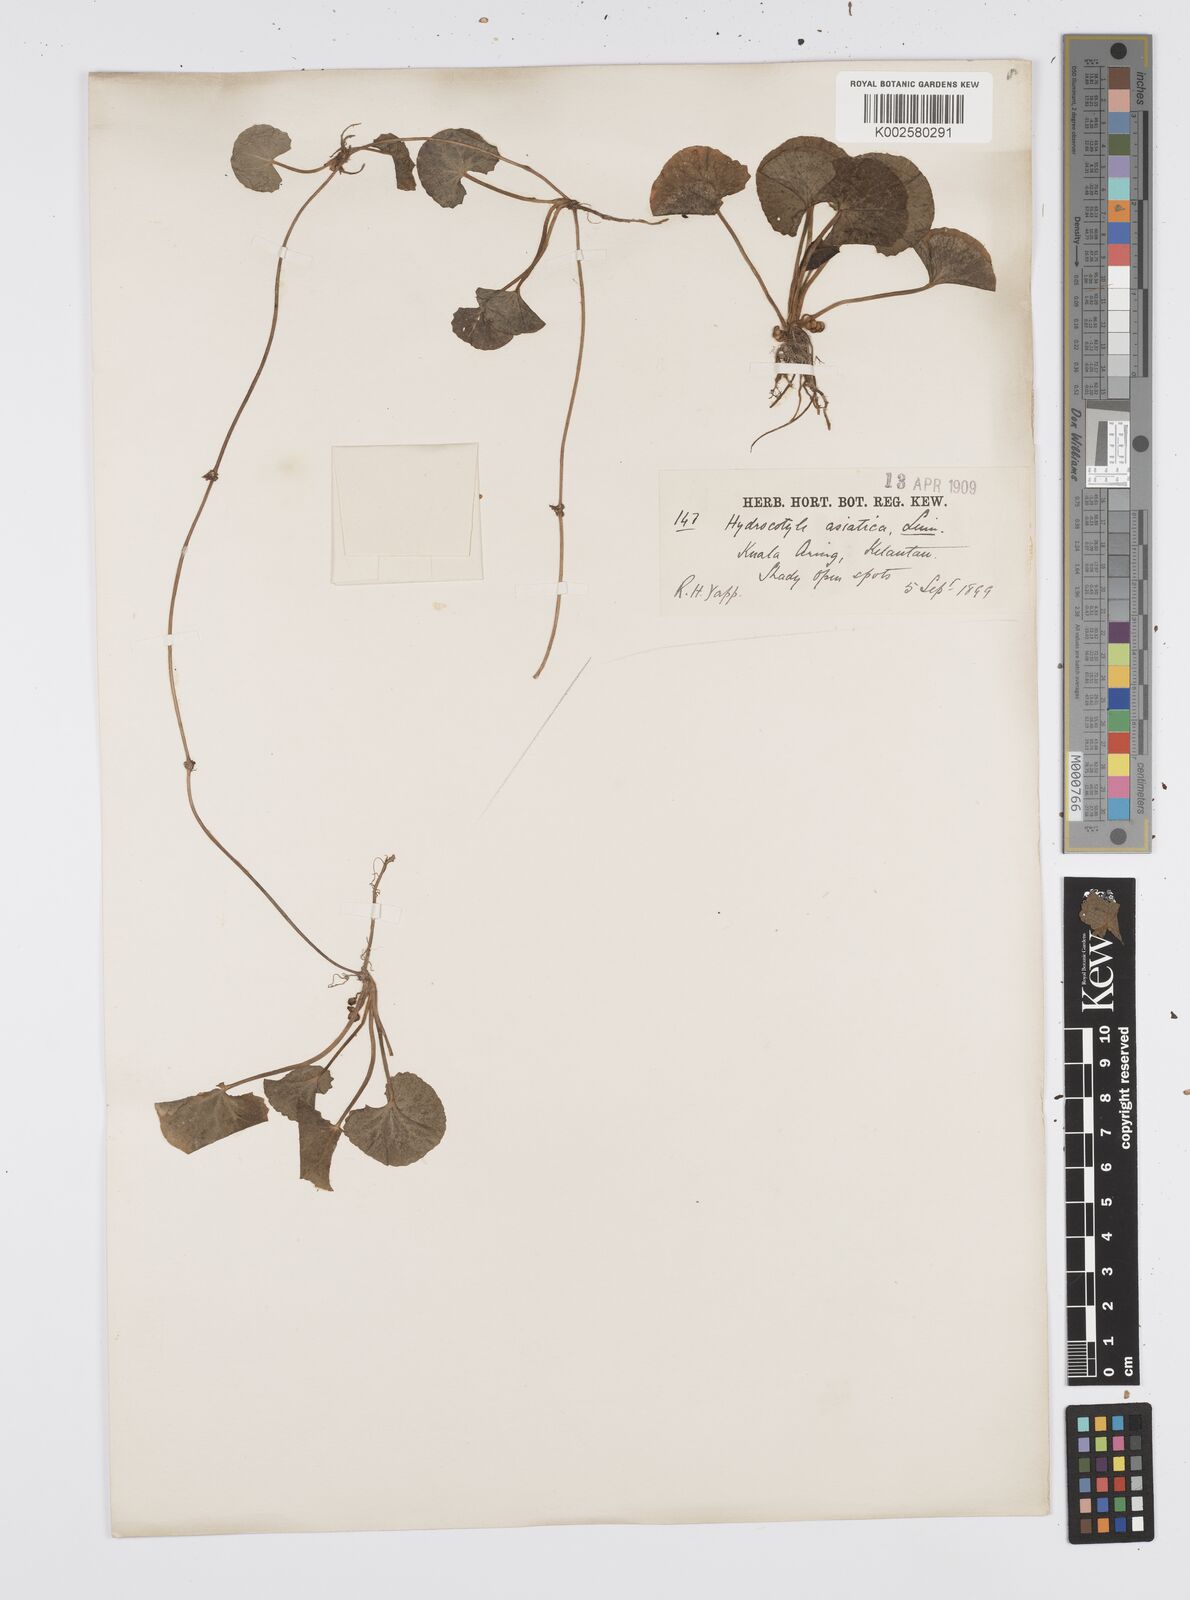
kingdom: Plantae
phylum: Tracheophyta
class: Magnoliopsida
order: Apiales
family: Apiaceae
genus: Centella
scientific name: Centella asiatica
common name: Spadeleaf
